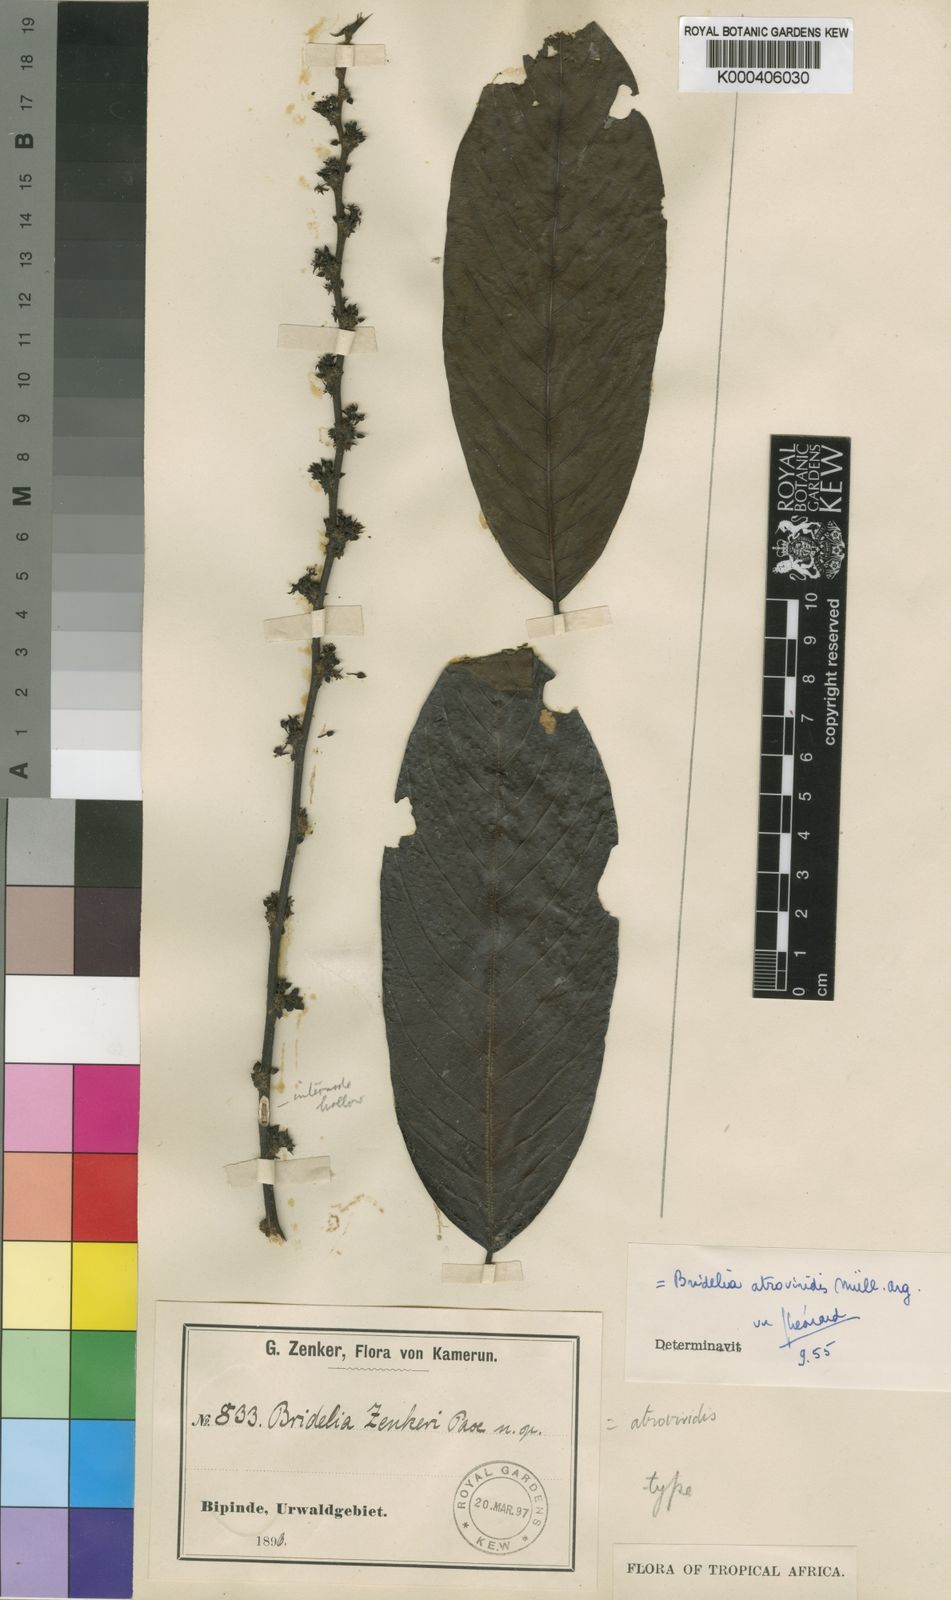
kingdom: Plantae
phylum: Tracheophyta
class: Magnoliopsida
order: Malpighiales
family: Phyllanthaceae
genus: Bridelia
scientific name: Bridelia
